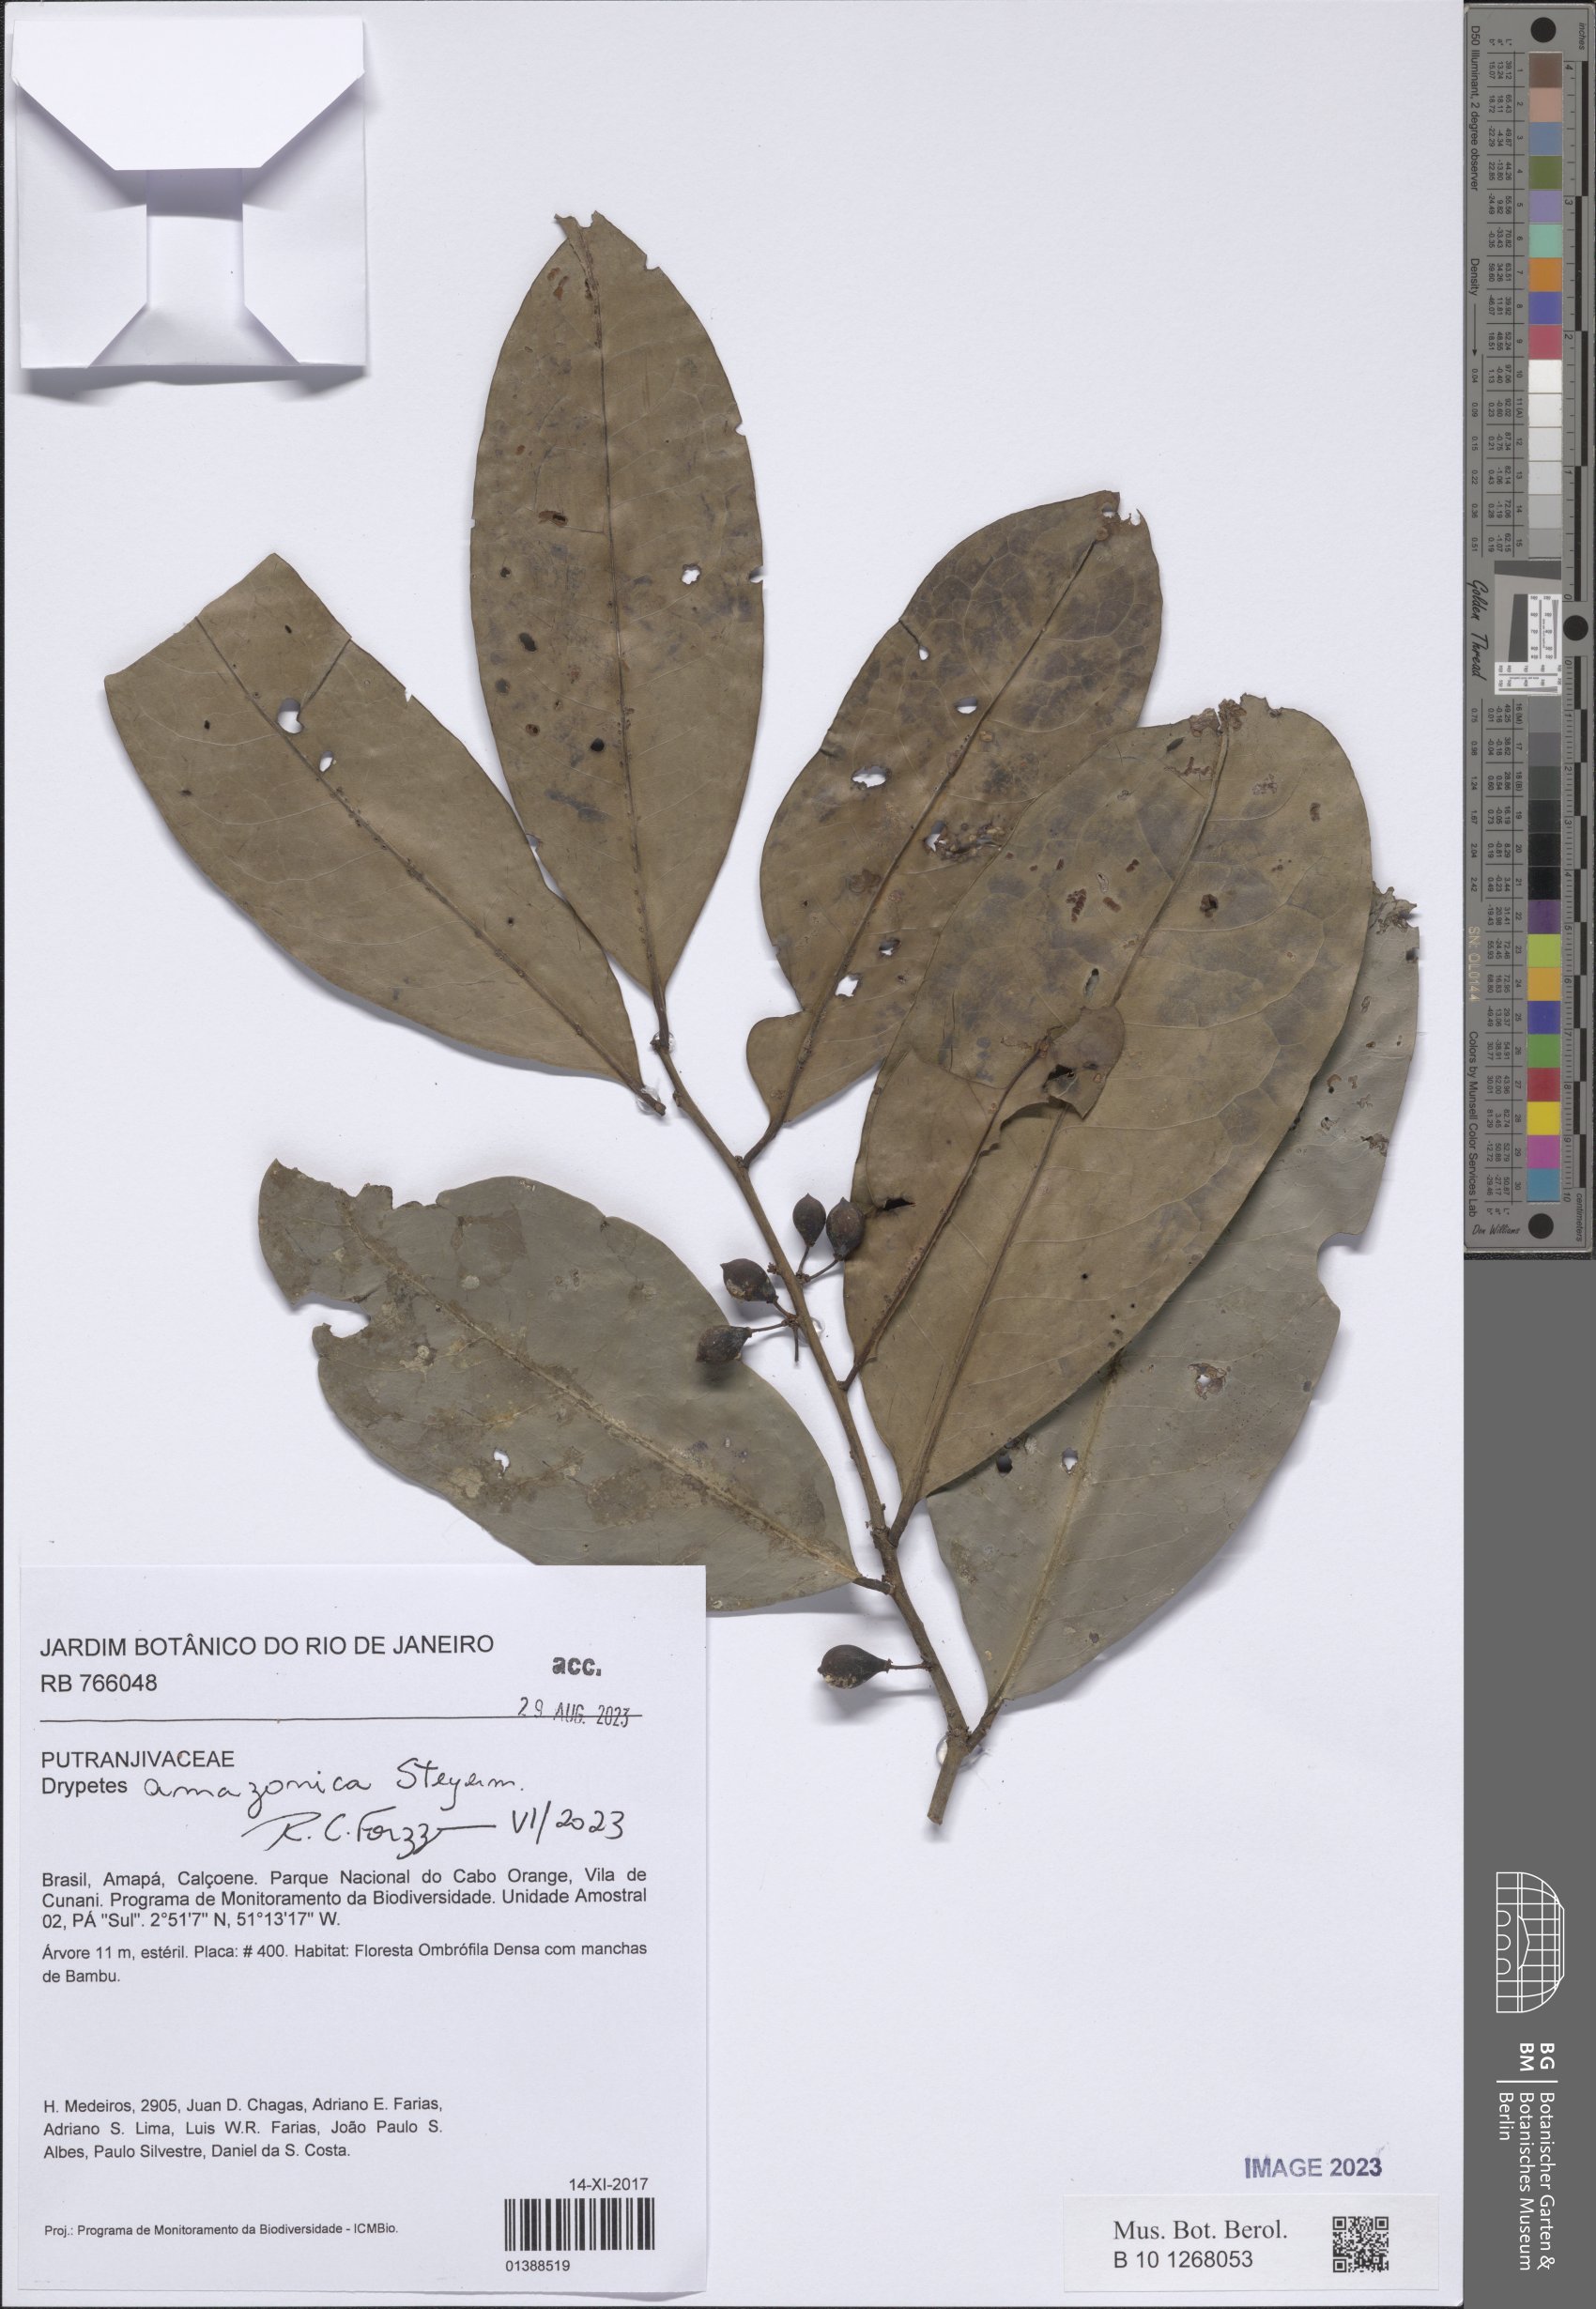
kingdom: Plantae
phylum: Tracheophyta
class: Magnoliopsida
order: Malpighiales
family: Putranjivaceae
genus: Drypetes
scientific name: Drypetes amazonica
